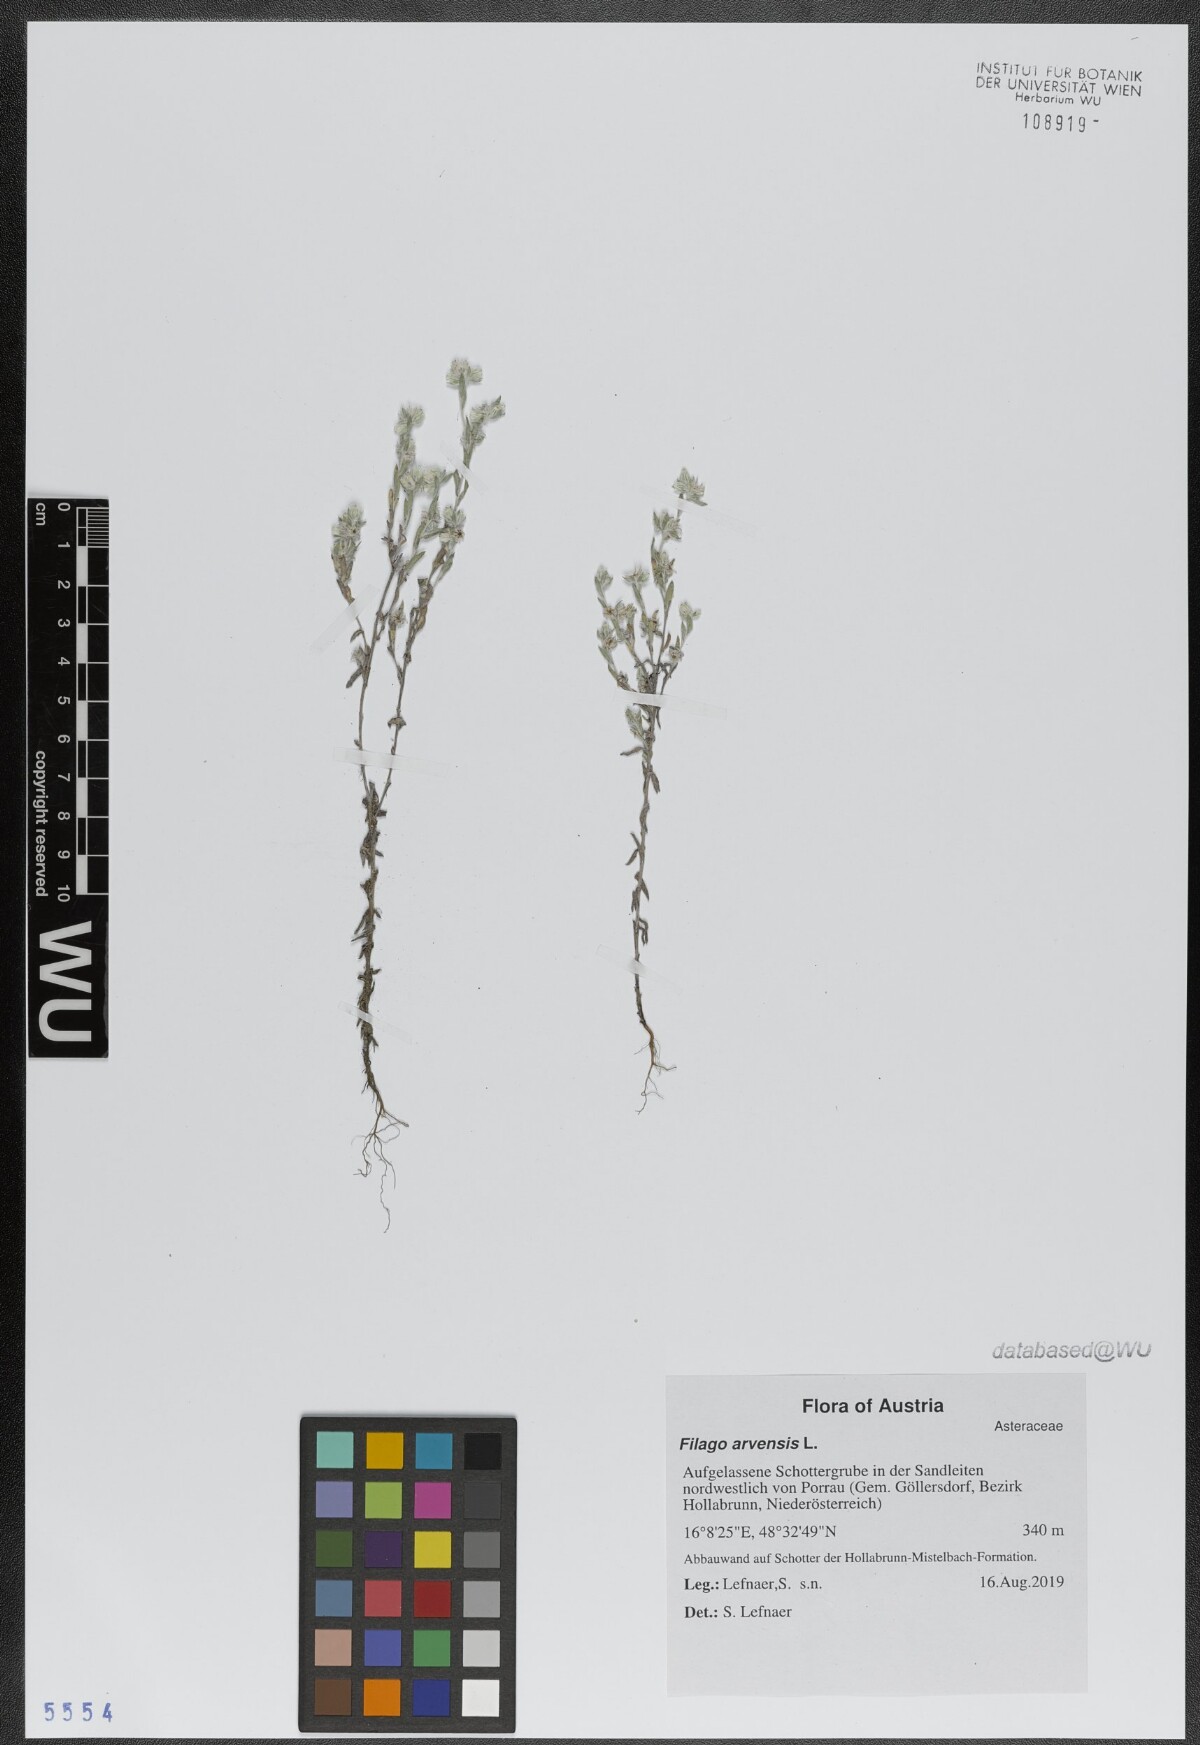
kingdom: Plantae
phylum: Tracheophyta
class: Magnoliopsida
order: Asterales
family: Asteraceae
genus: Filago
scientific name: Filago arvensis
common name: Field cudweed
